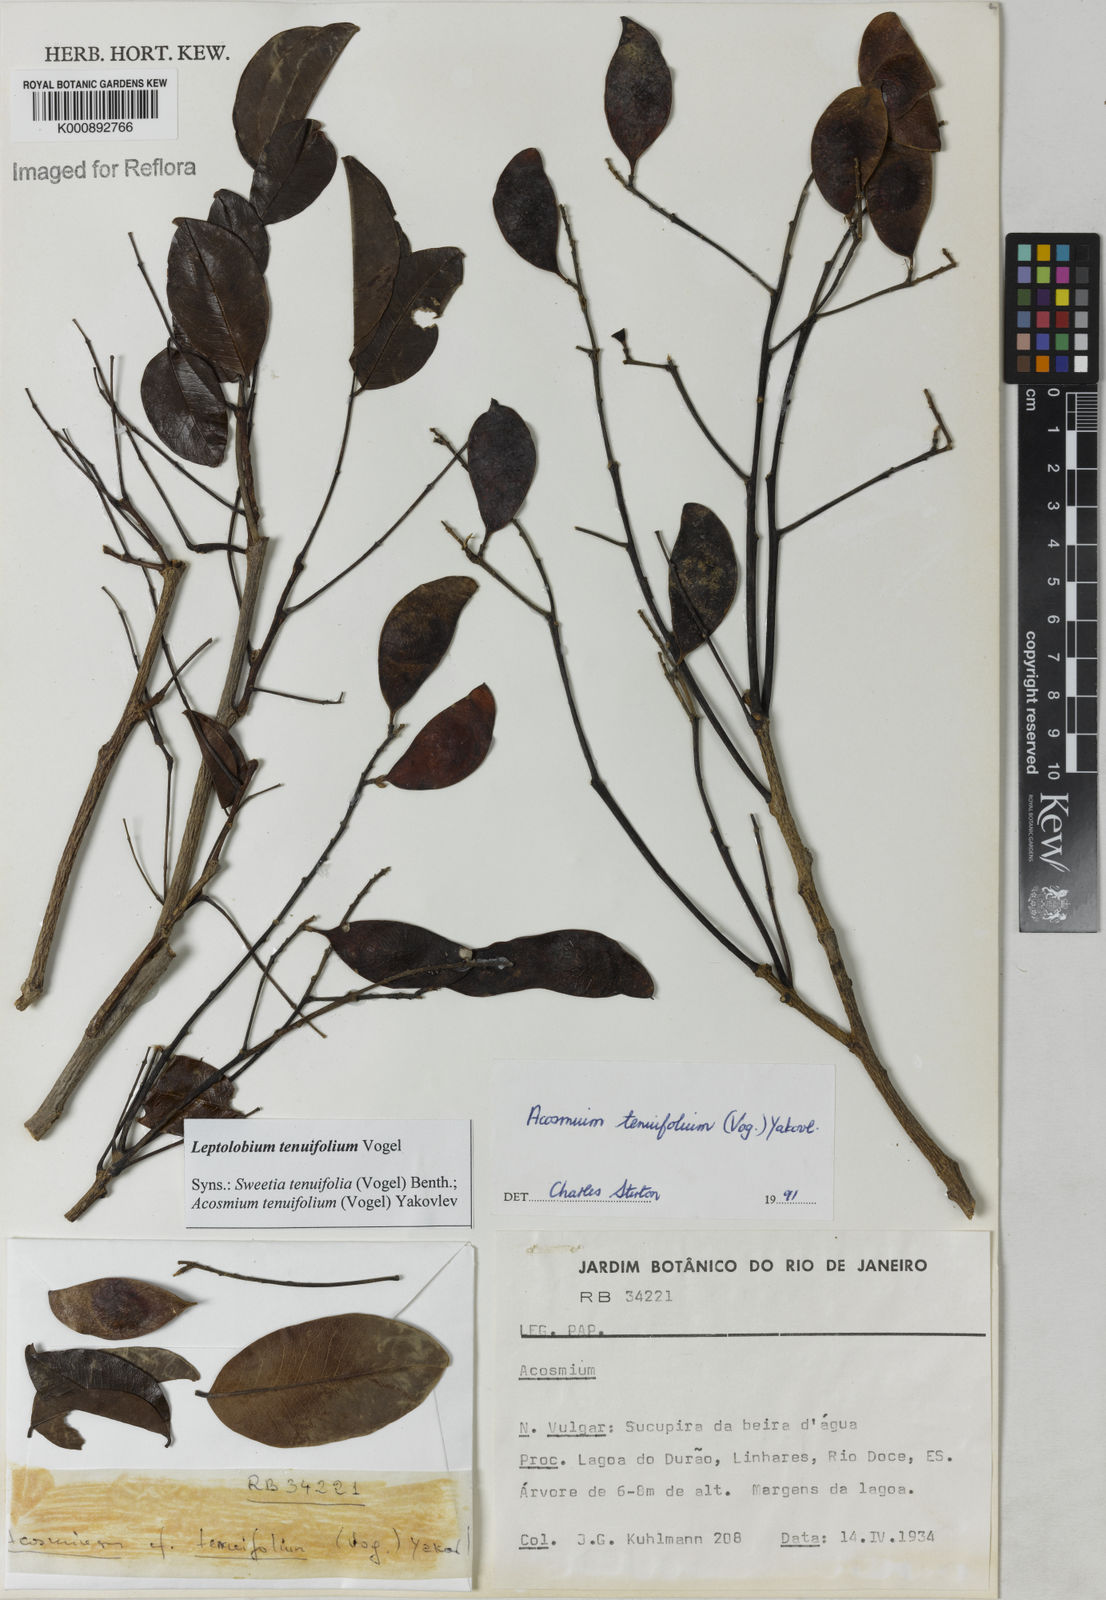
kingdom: Plantae
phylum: Tracheophyta
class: Magnoliopsida
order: Fabales
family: Fabaceae
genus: Leptolobium
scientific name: Leptolobium tenuifolium
